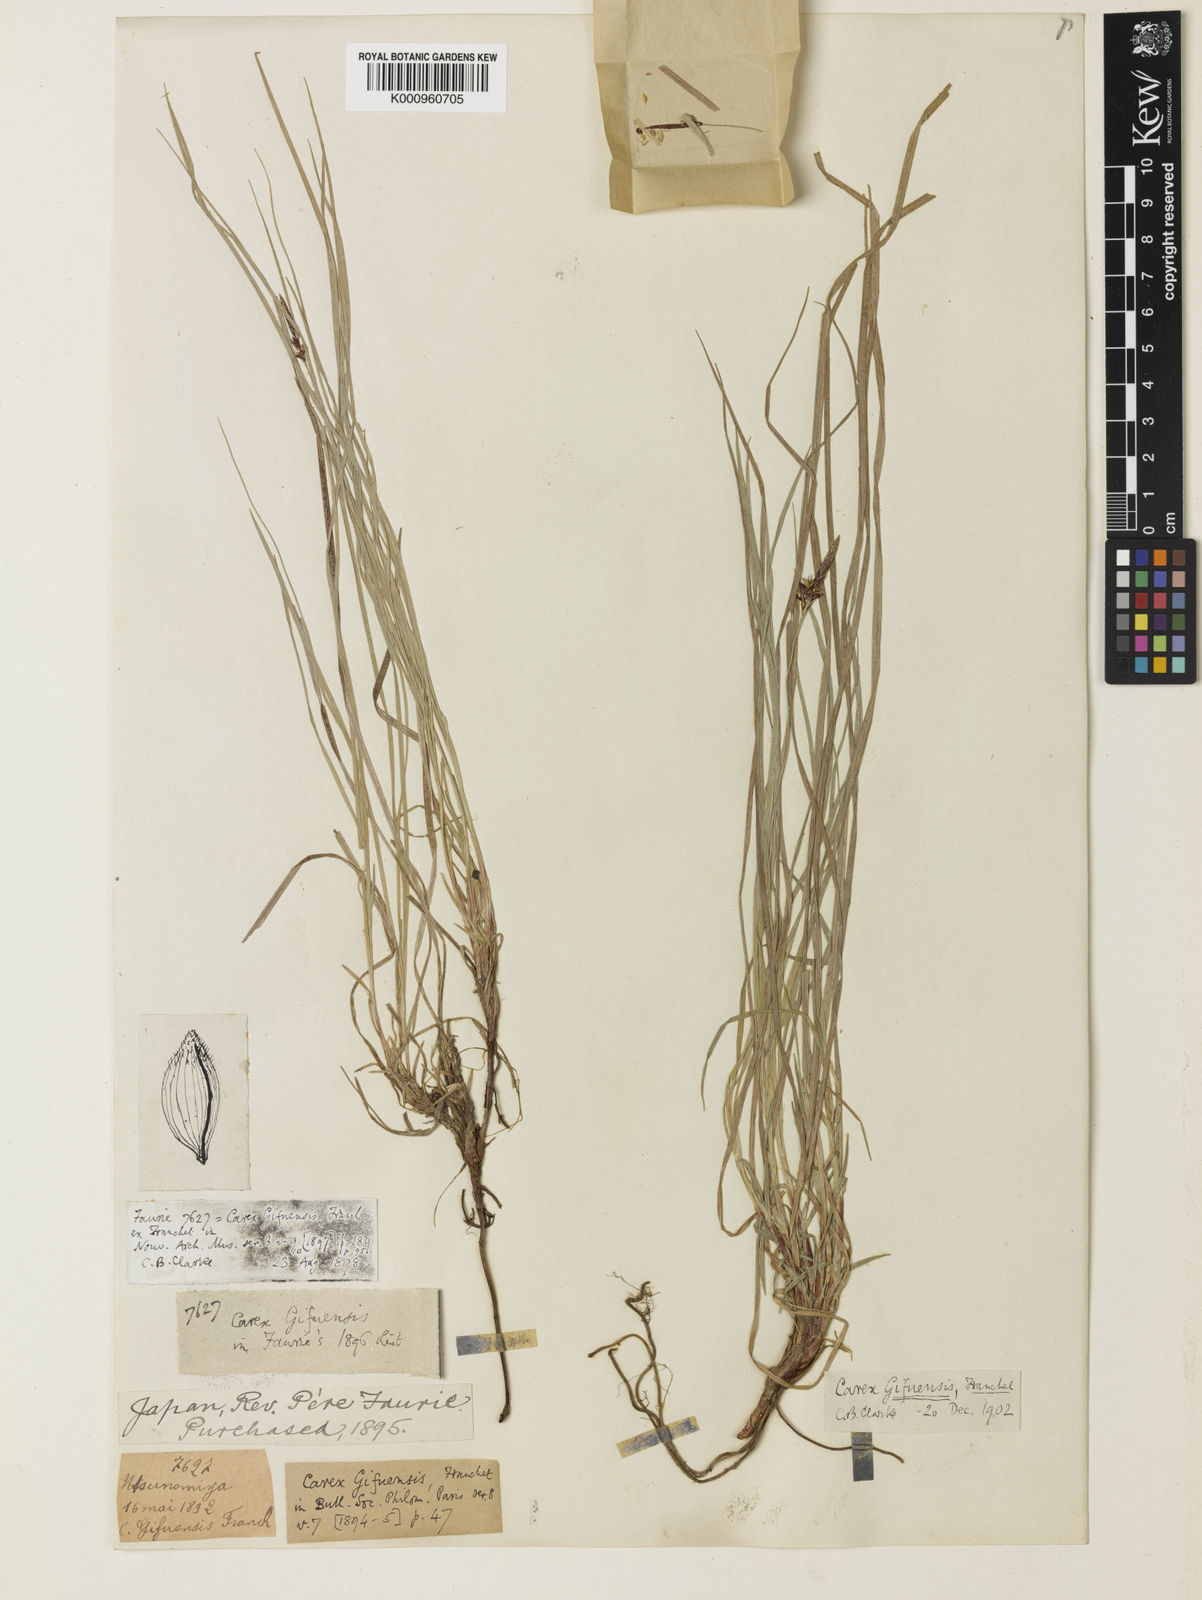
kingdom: Plantae
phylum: Tracheophyta
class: Liliopsida
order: Poales
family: Cyperaceae
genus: Carex
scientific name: Carex gifuensis
